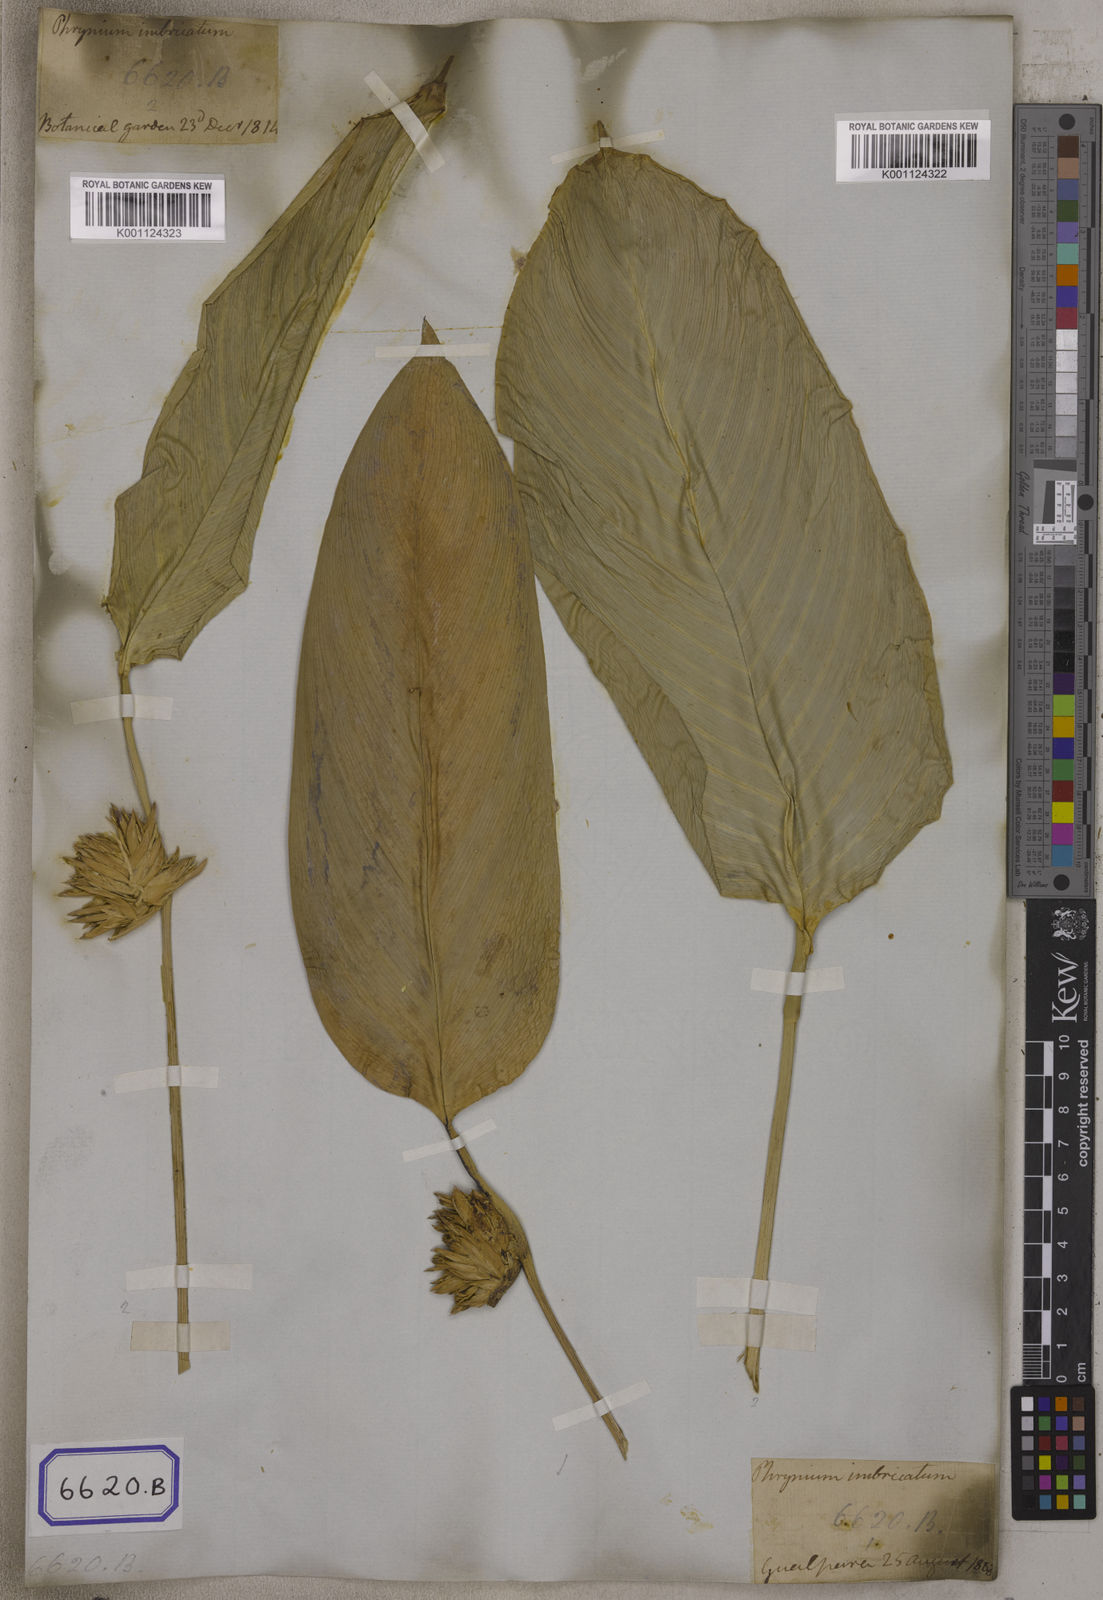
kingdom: Plantae
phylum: Tracheophyta
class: Liliopsida
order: Zingiberales
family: Marantaceae
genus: Stachyphrynium
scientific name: Stachyphrynium placentarium
